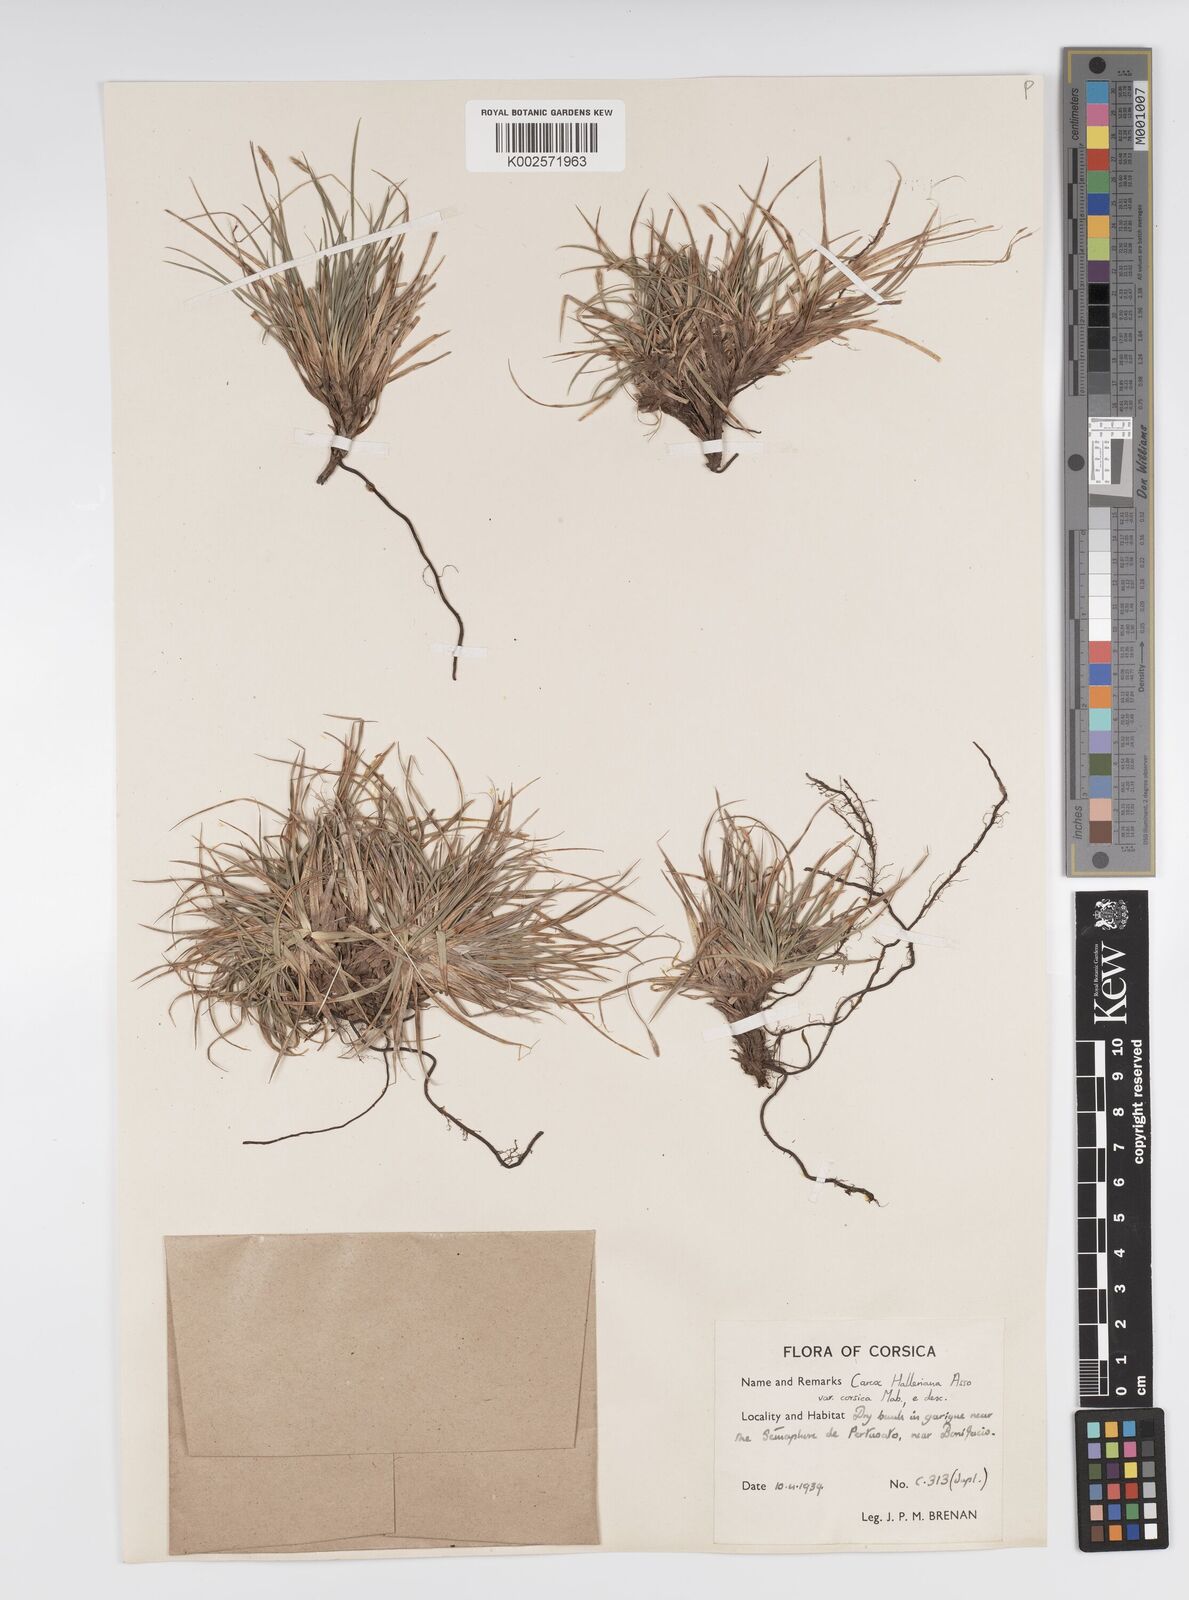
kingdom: Plantae
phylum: Tracheophyta
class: Liliopsida
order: Poales
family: Cyperaceae
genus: Carex
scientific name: Carex halleriana
